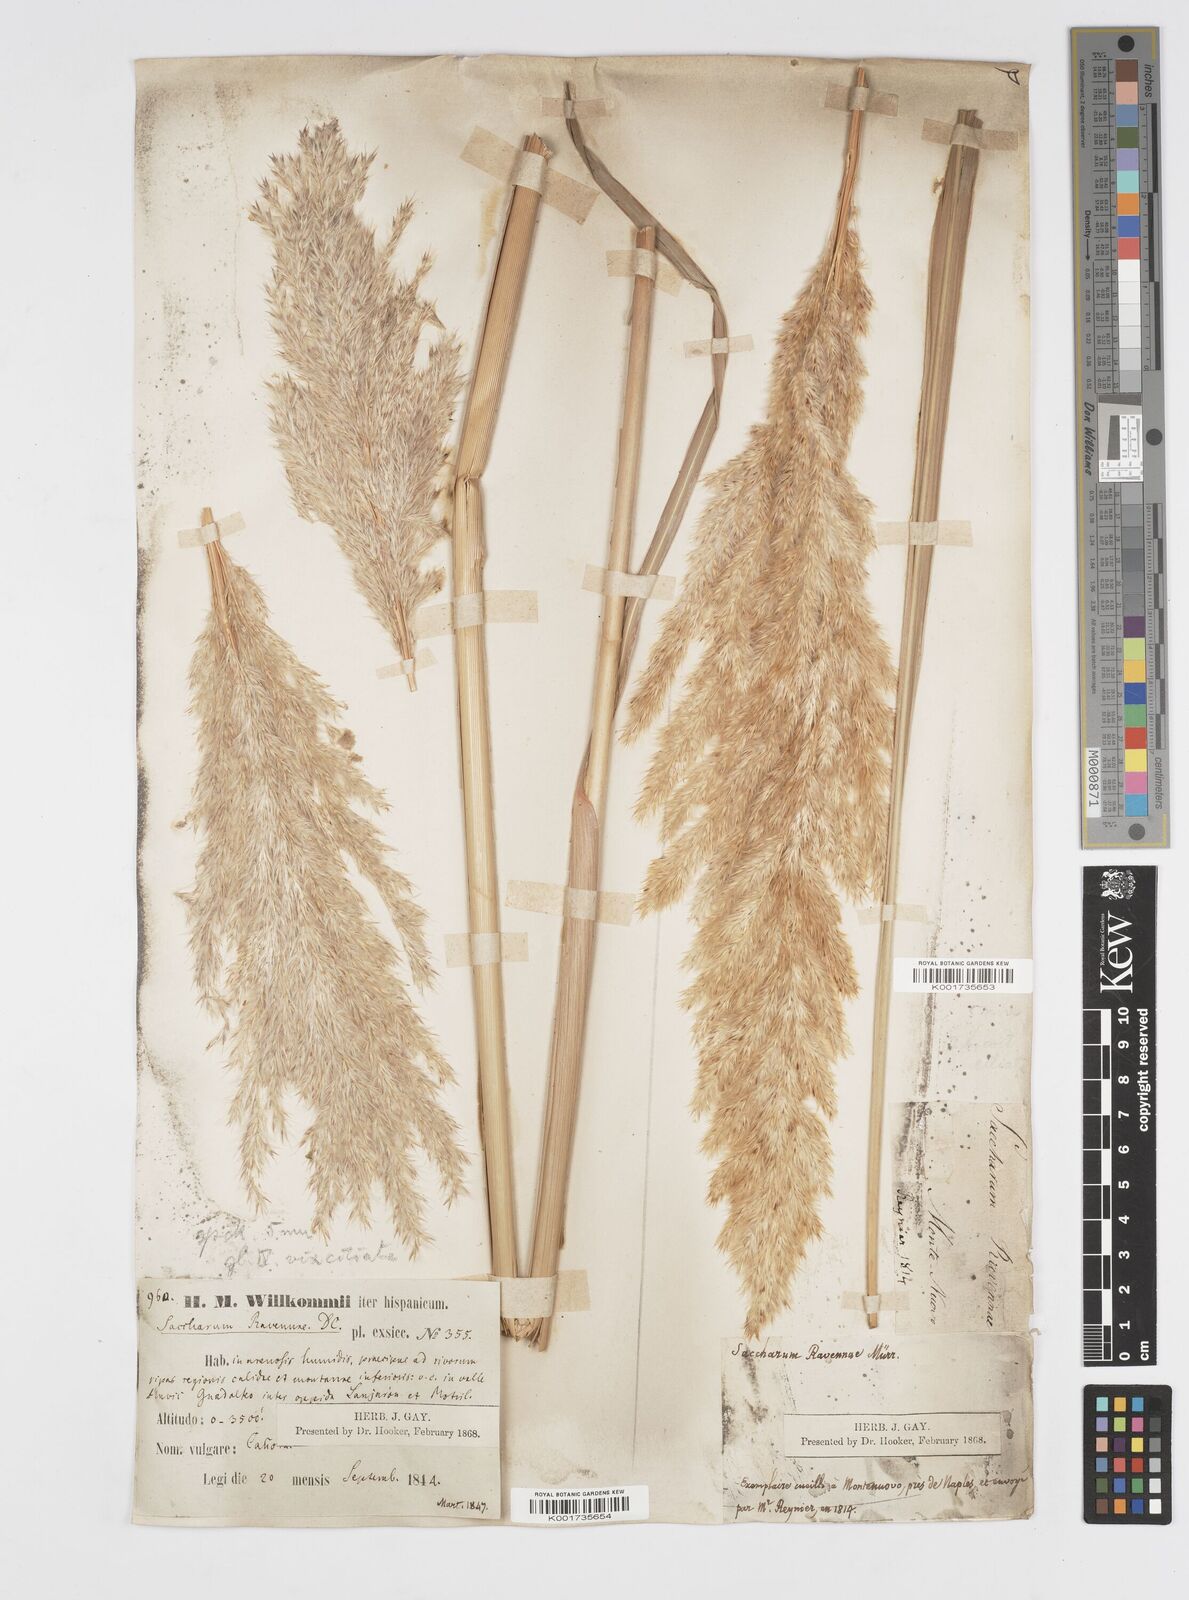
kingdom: Plantae
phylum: Tracheophyta
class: Liliopsida
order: Poales
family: Poaceae
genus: Tripidium
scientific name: Tripidium ravennae
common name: Ravenna grass
